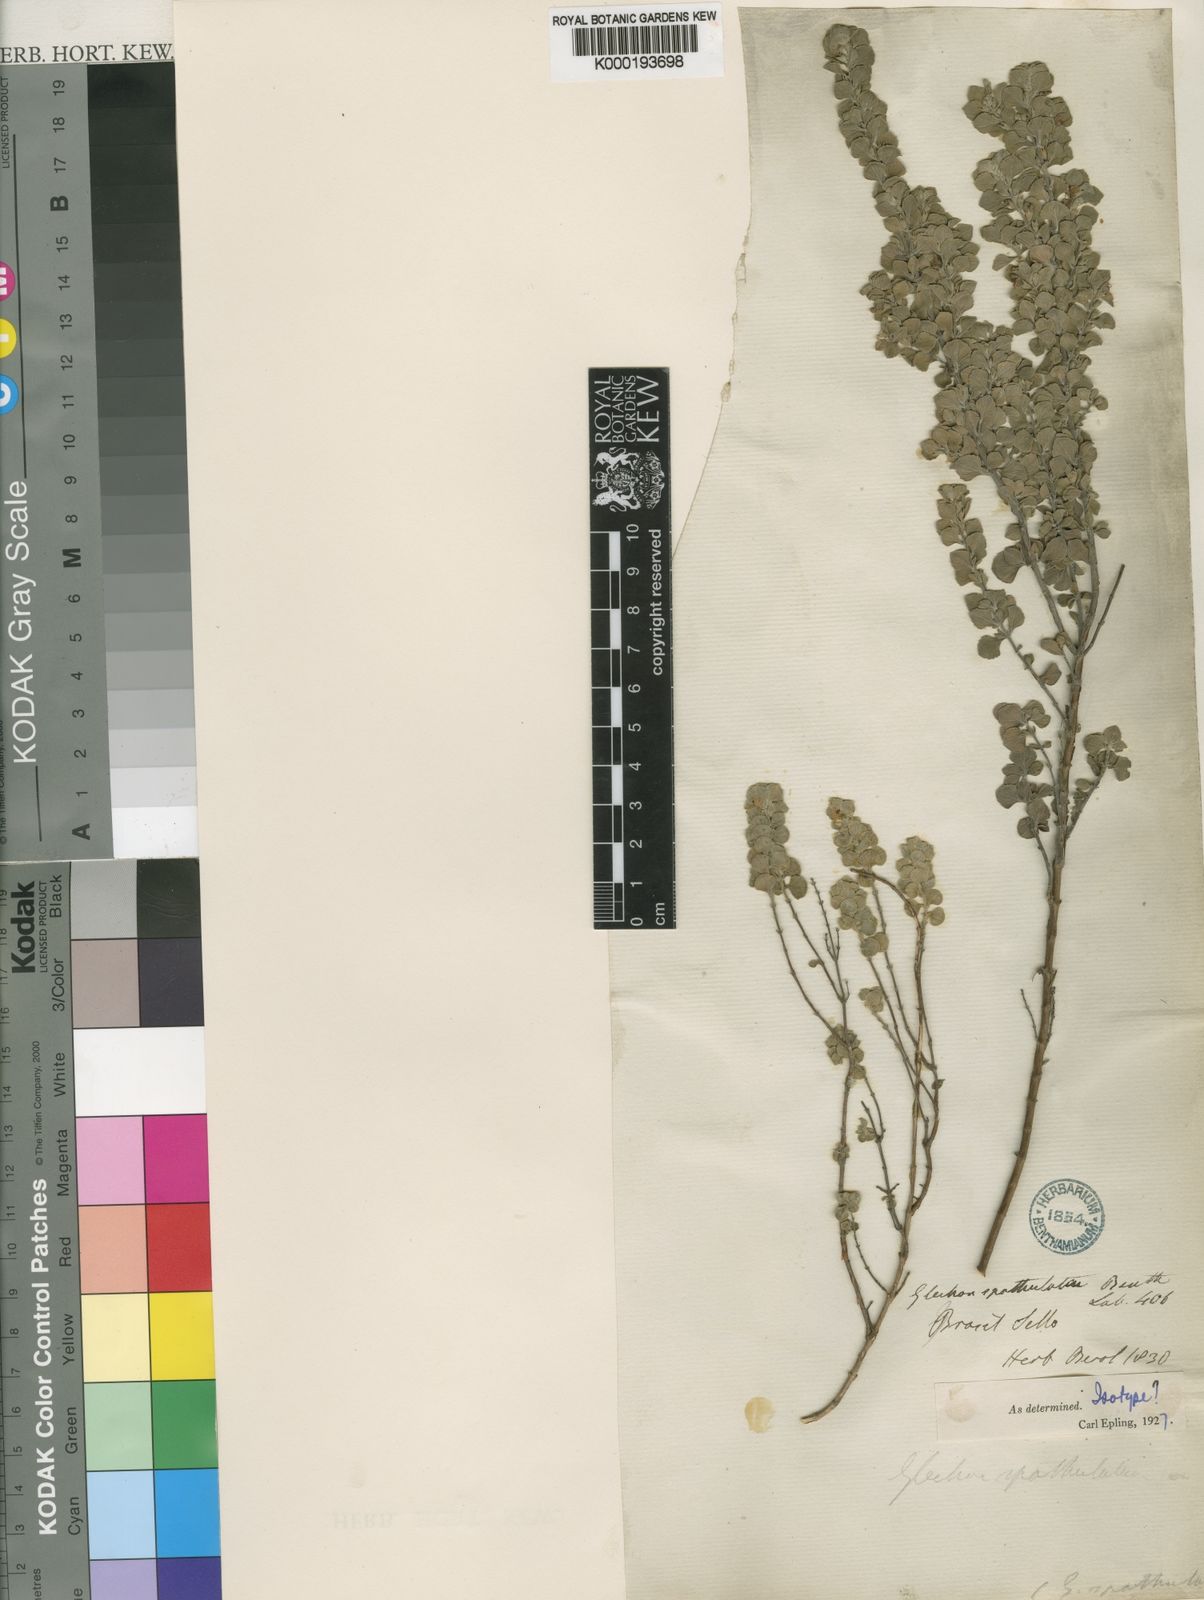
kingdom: Plantae
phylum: Tracheophyta
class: Magnoliopsida
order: Lamiales
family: Lamiaceae
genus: Glechon
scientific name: Glechon thymoides
